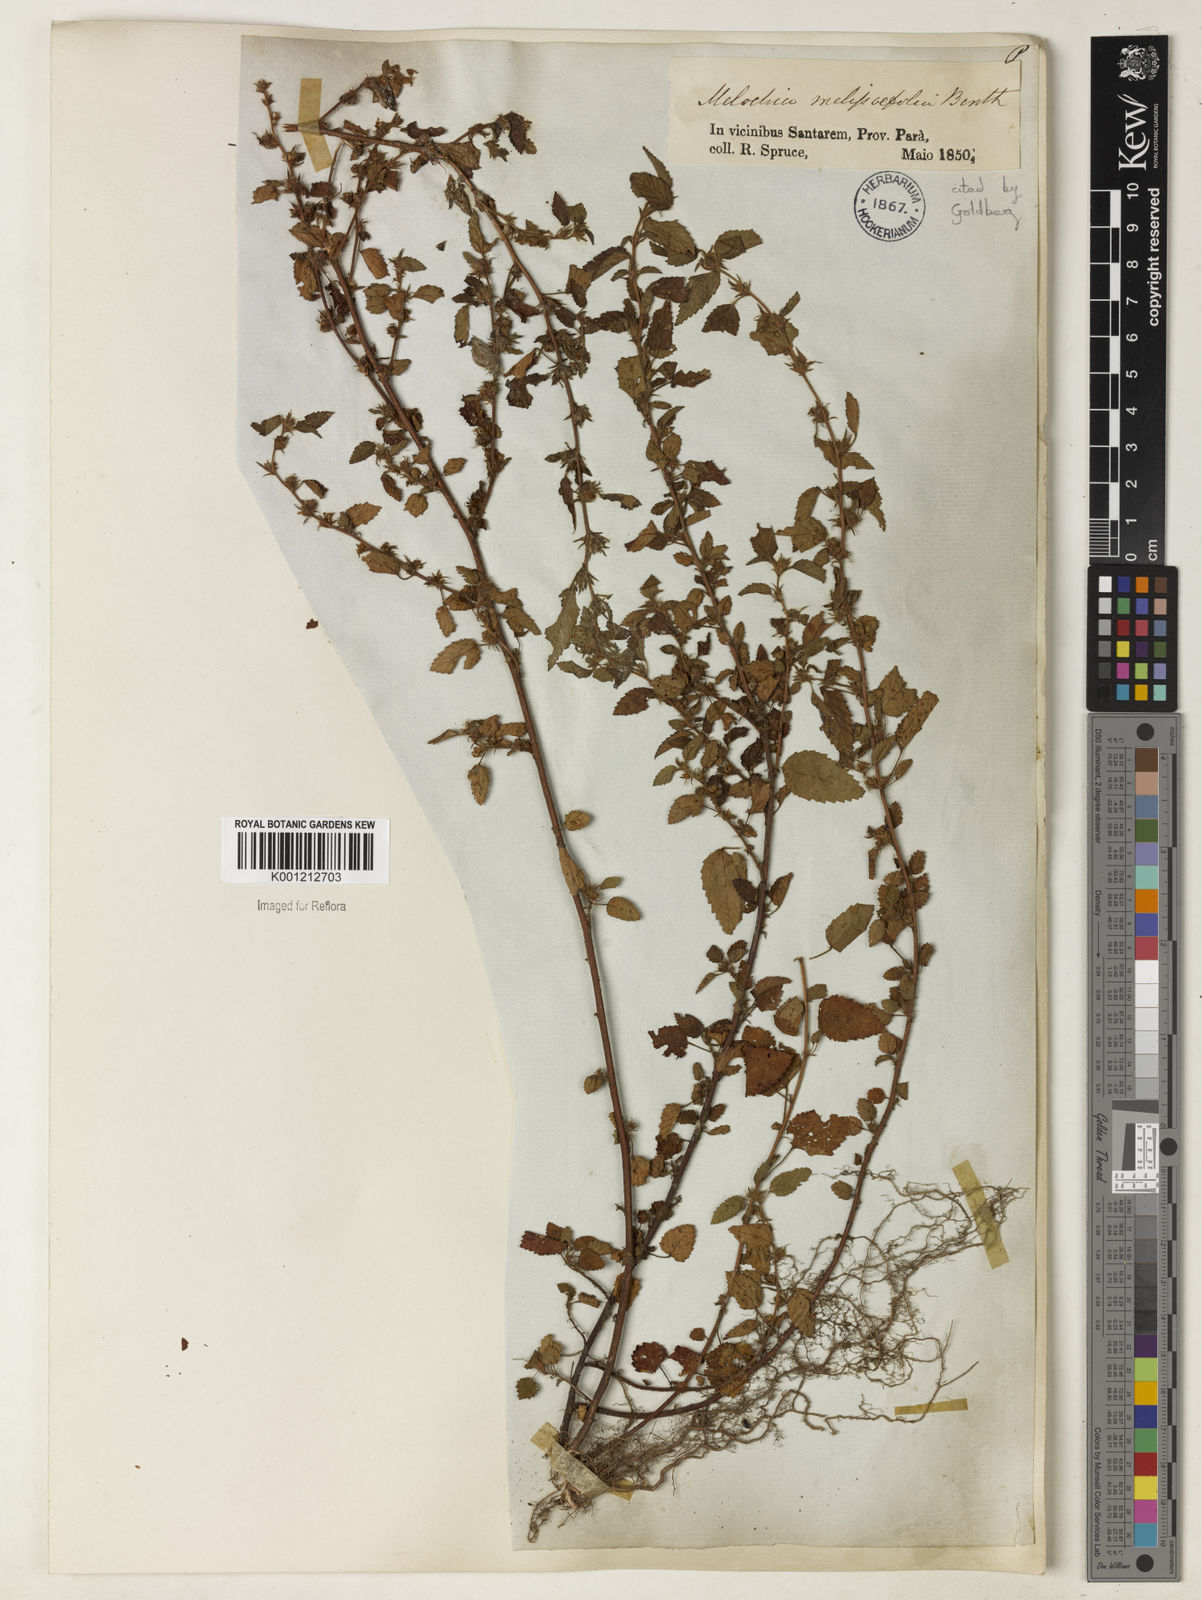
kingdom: Plantae
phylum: Tracheophyta
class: Magnoliopsida
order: Malvales
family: Malvaceae
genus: Melochia
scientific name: Melochia melissifolia
